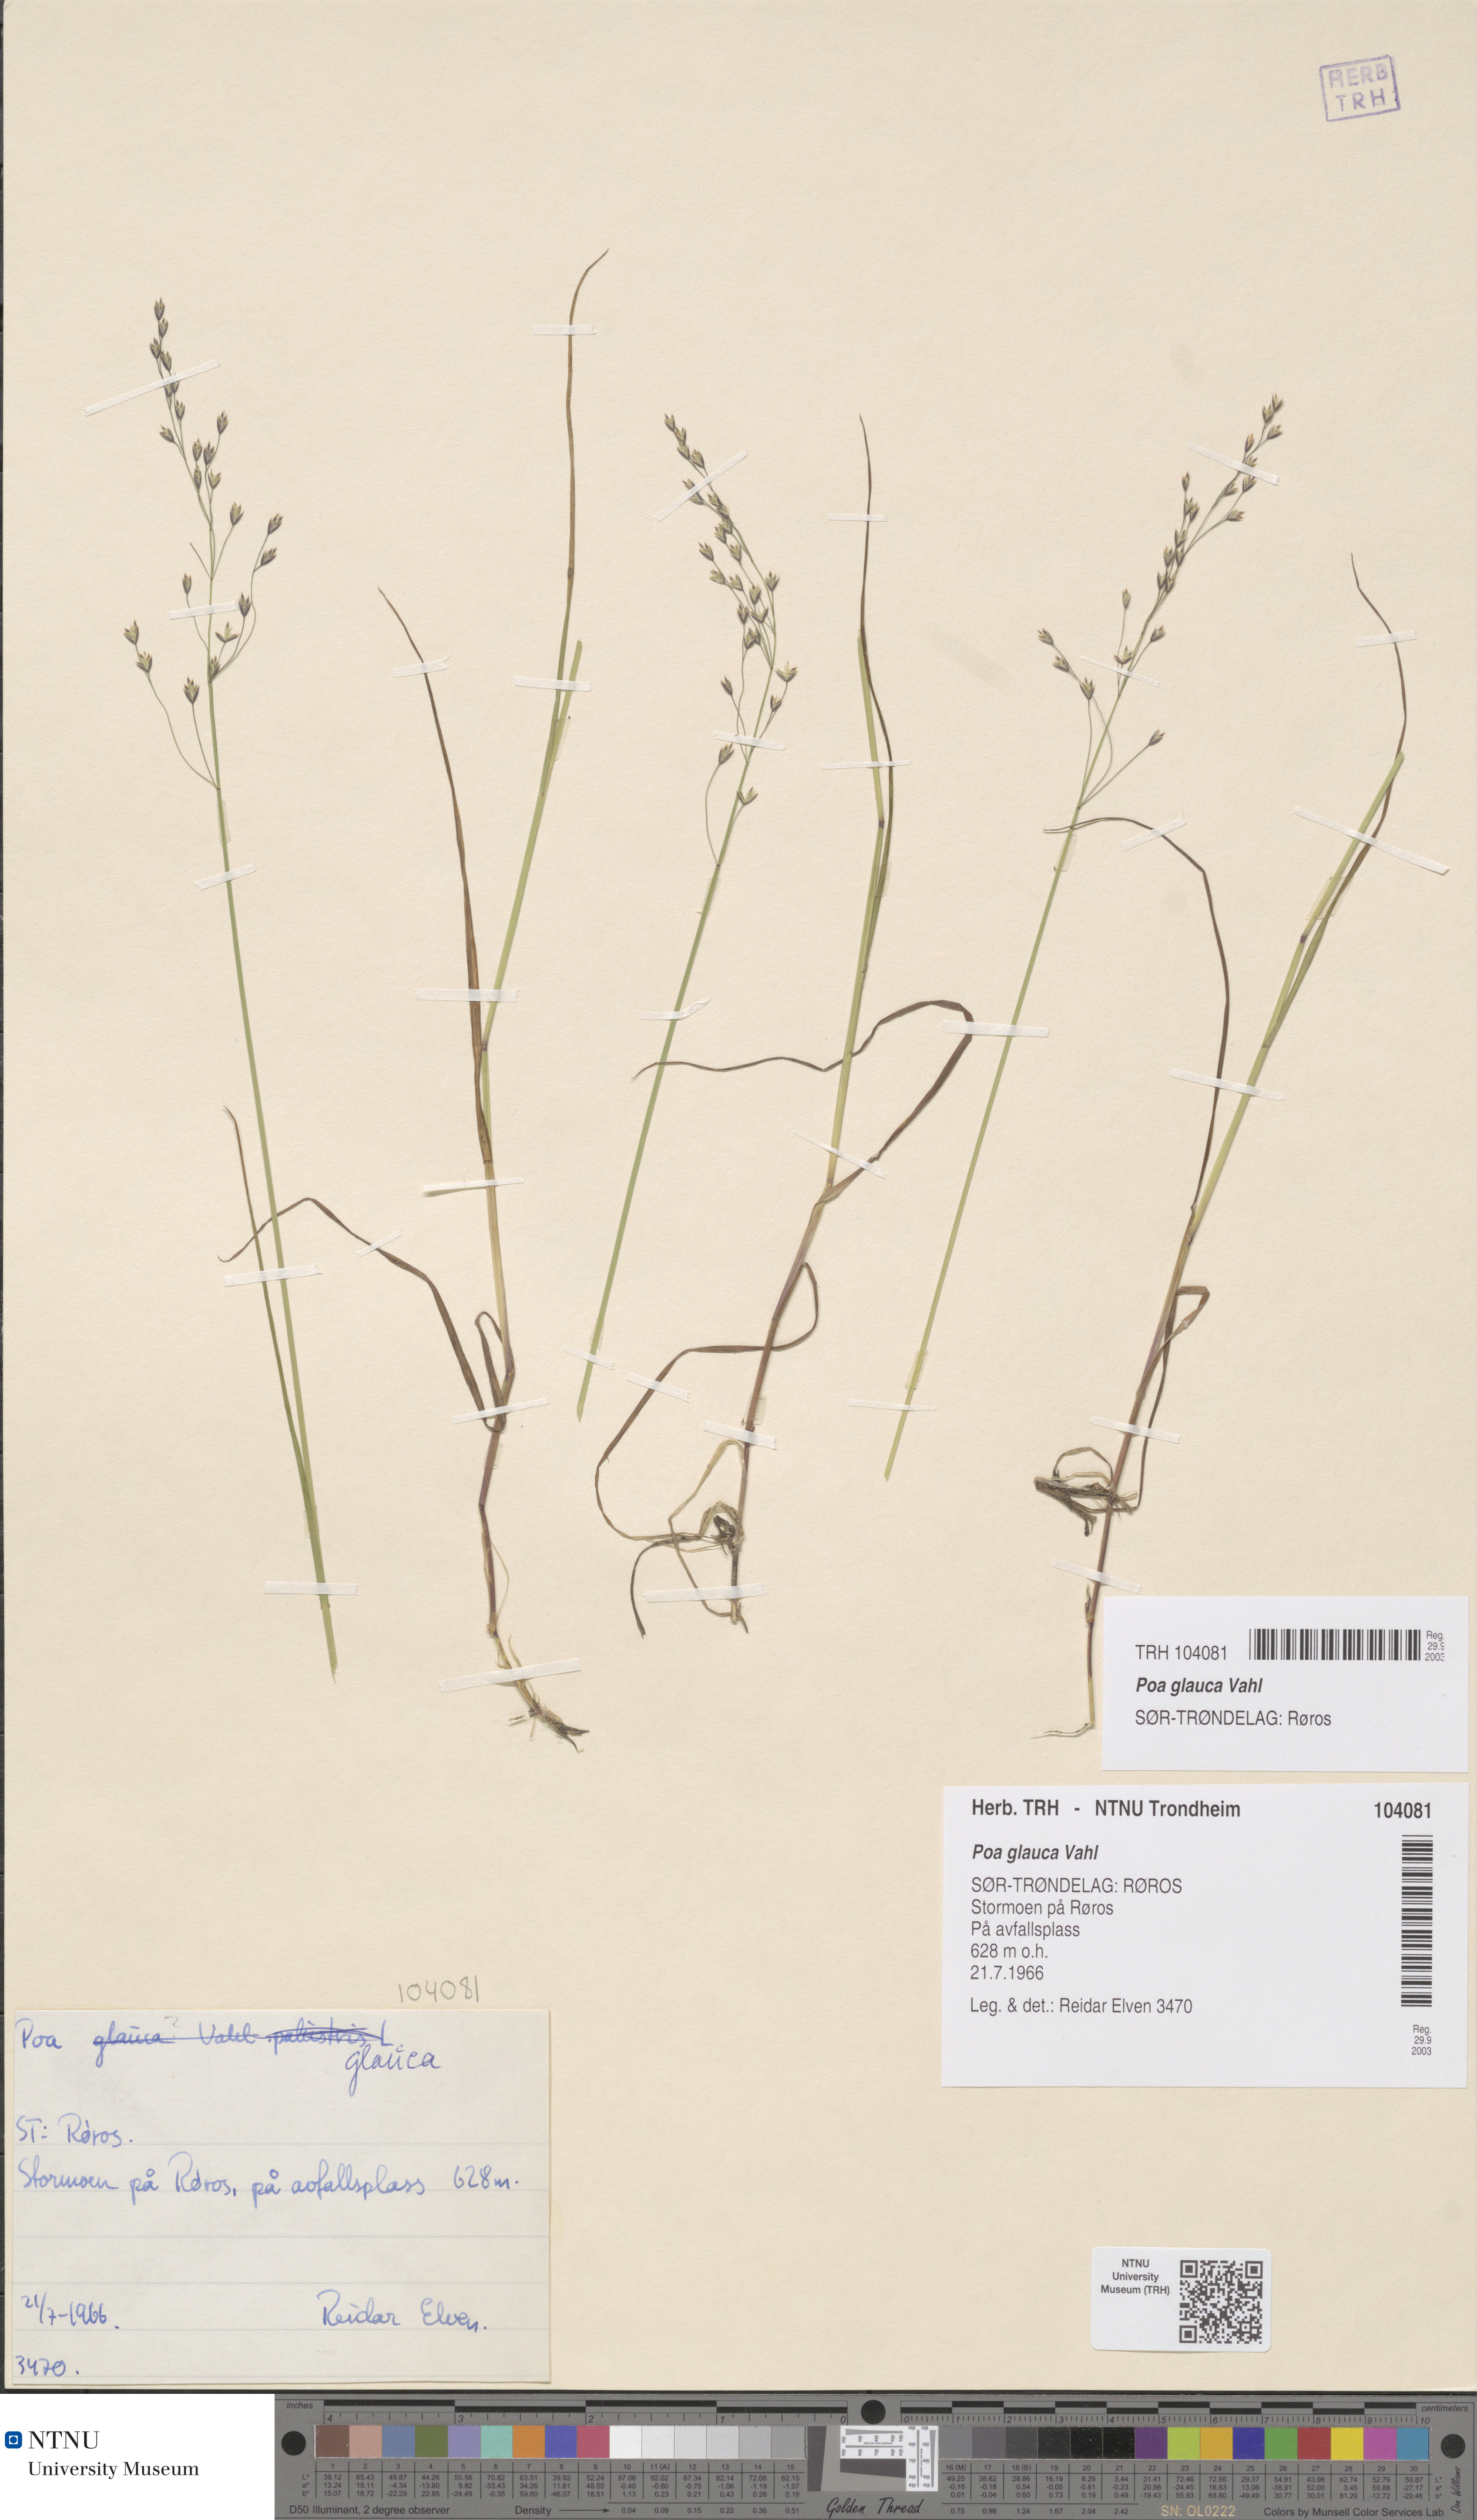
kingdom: Plantae
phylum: Tracheophyta
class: Liliopsida
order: Poales
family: Poaceae
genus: Poa
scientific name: Poa glauca
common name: Glaucous bluegrass
